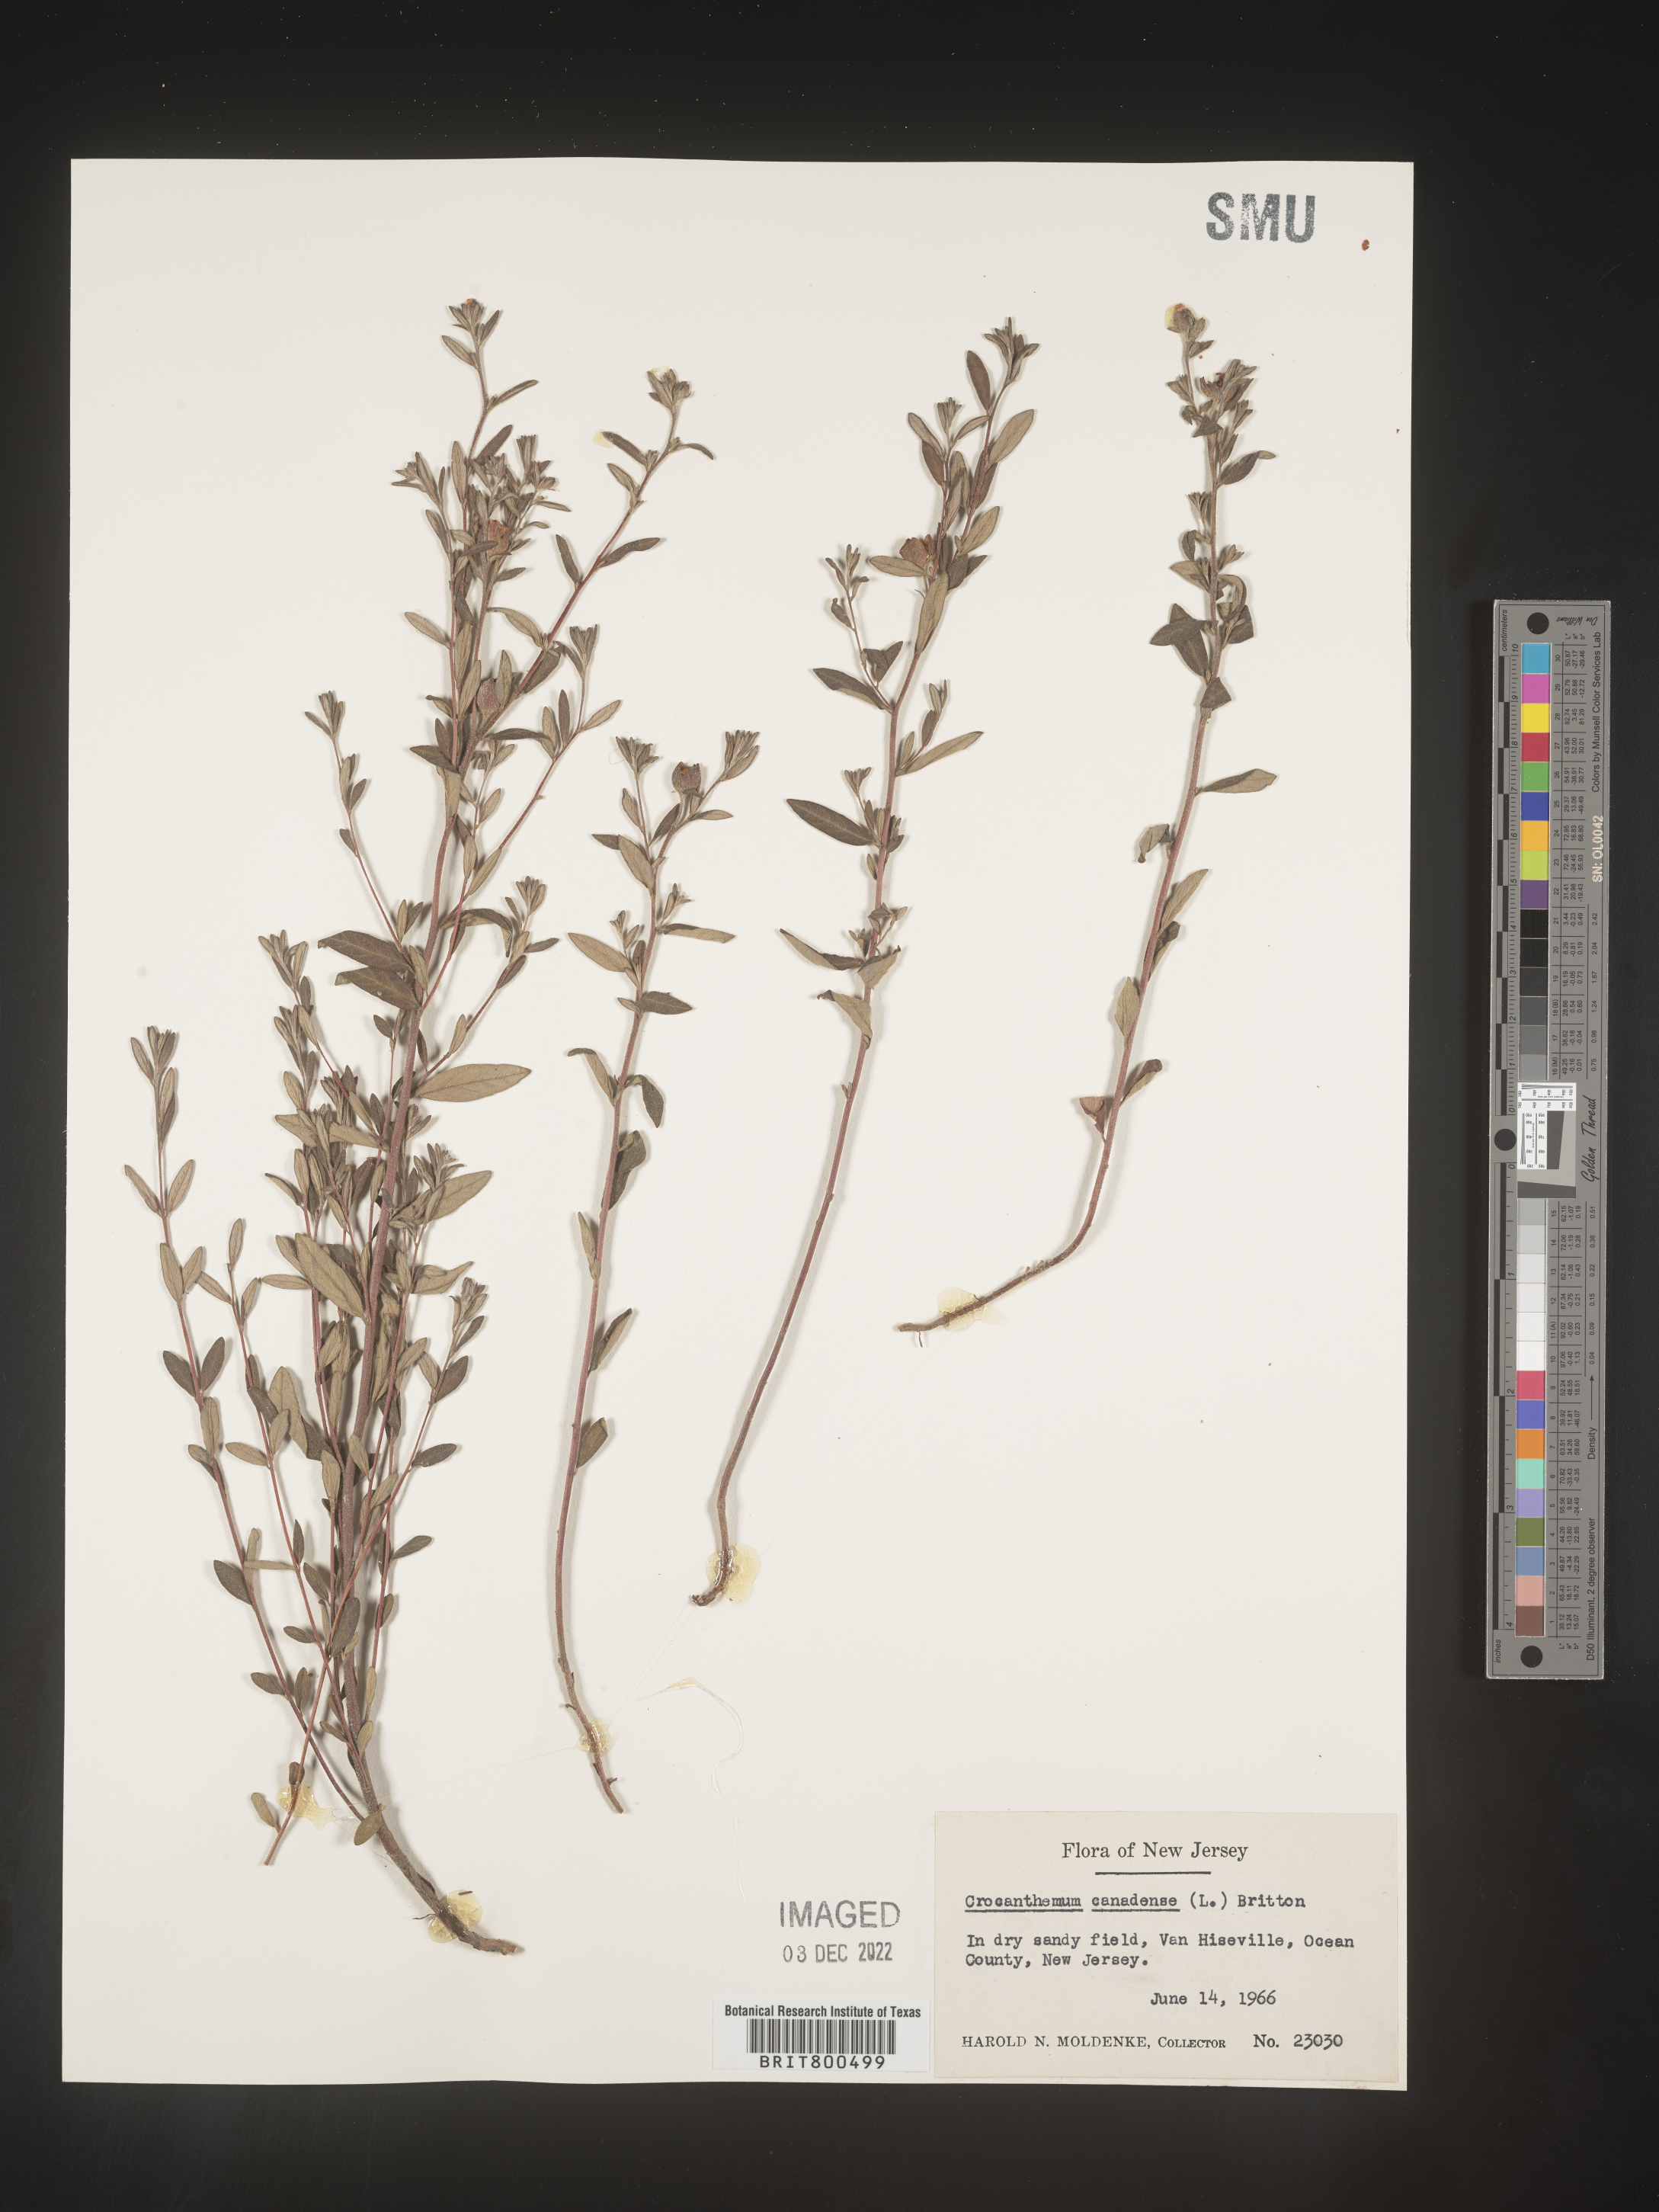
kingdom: Plantae
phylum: Tracheophyta
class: Magnoliopsida
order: Malvales
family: Cistaceae
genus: Crocanthemum
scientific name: Crocanthemum canadense
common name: Canada frostweed
